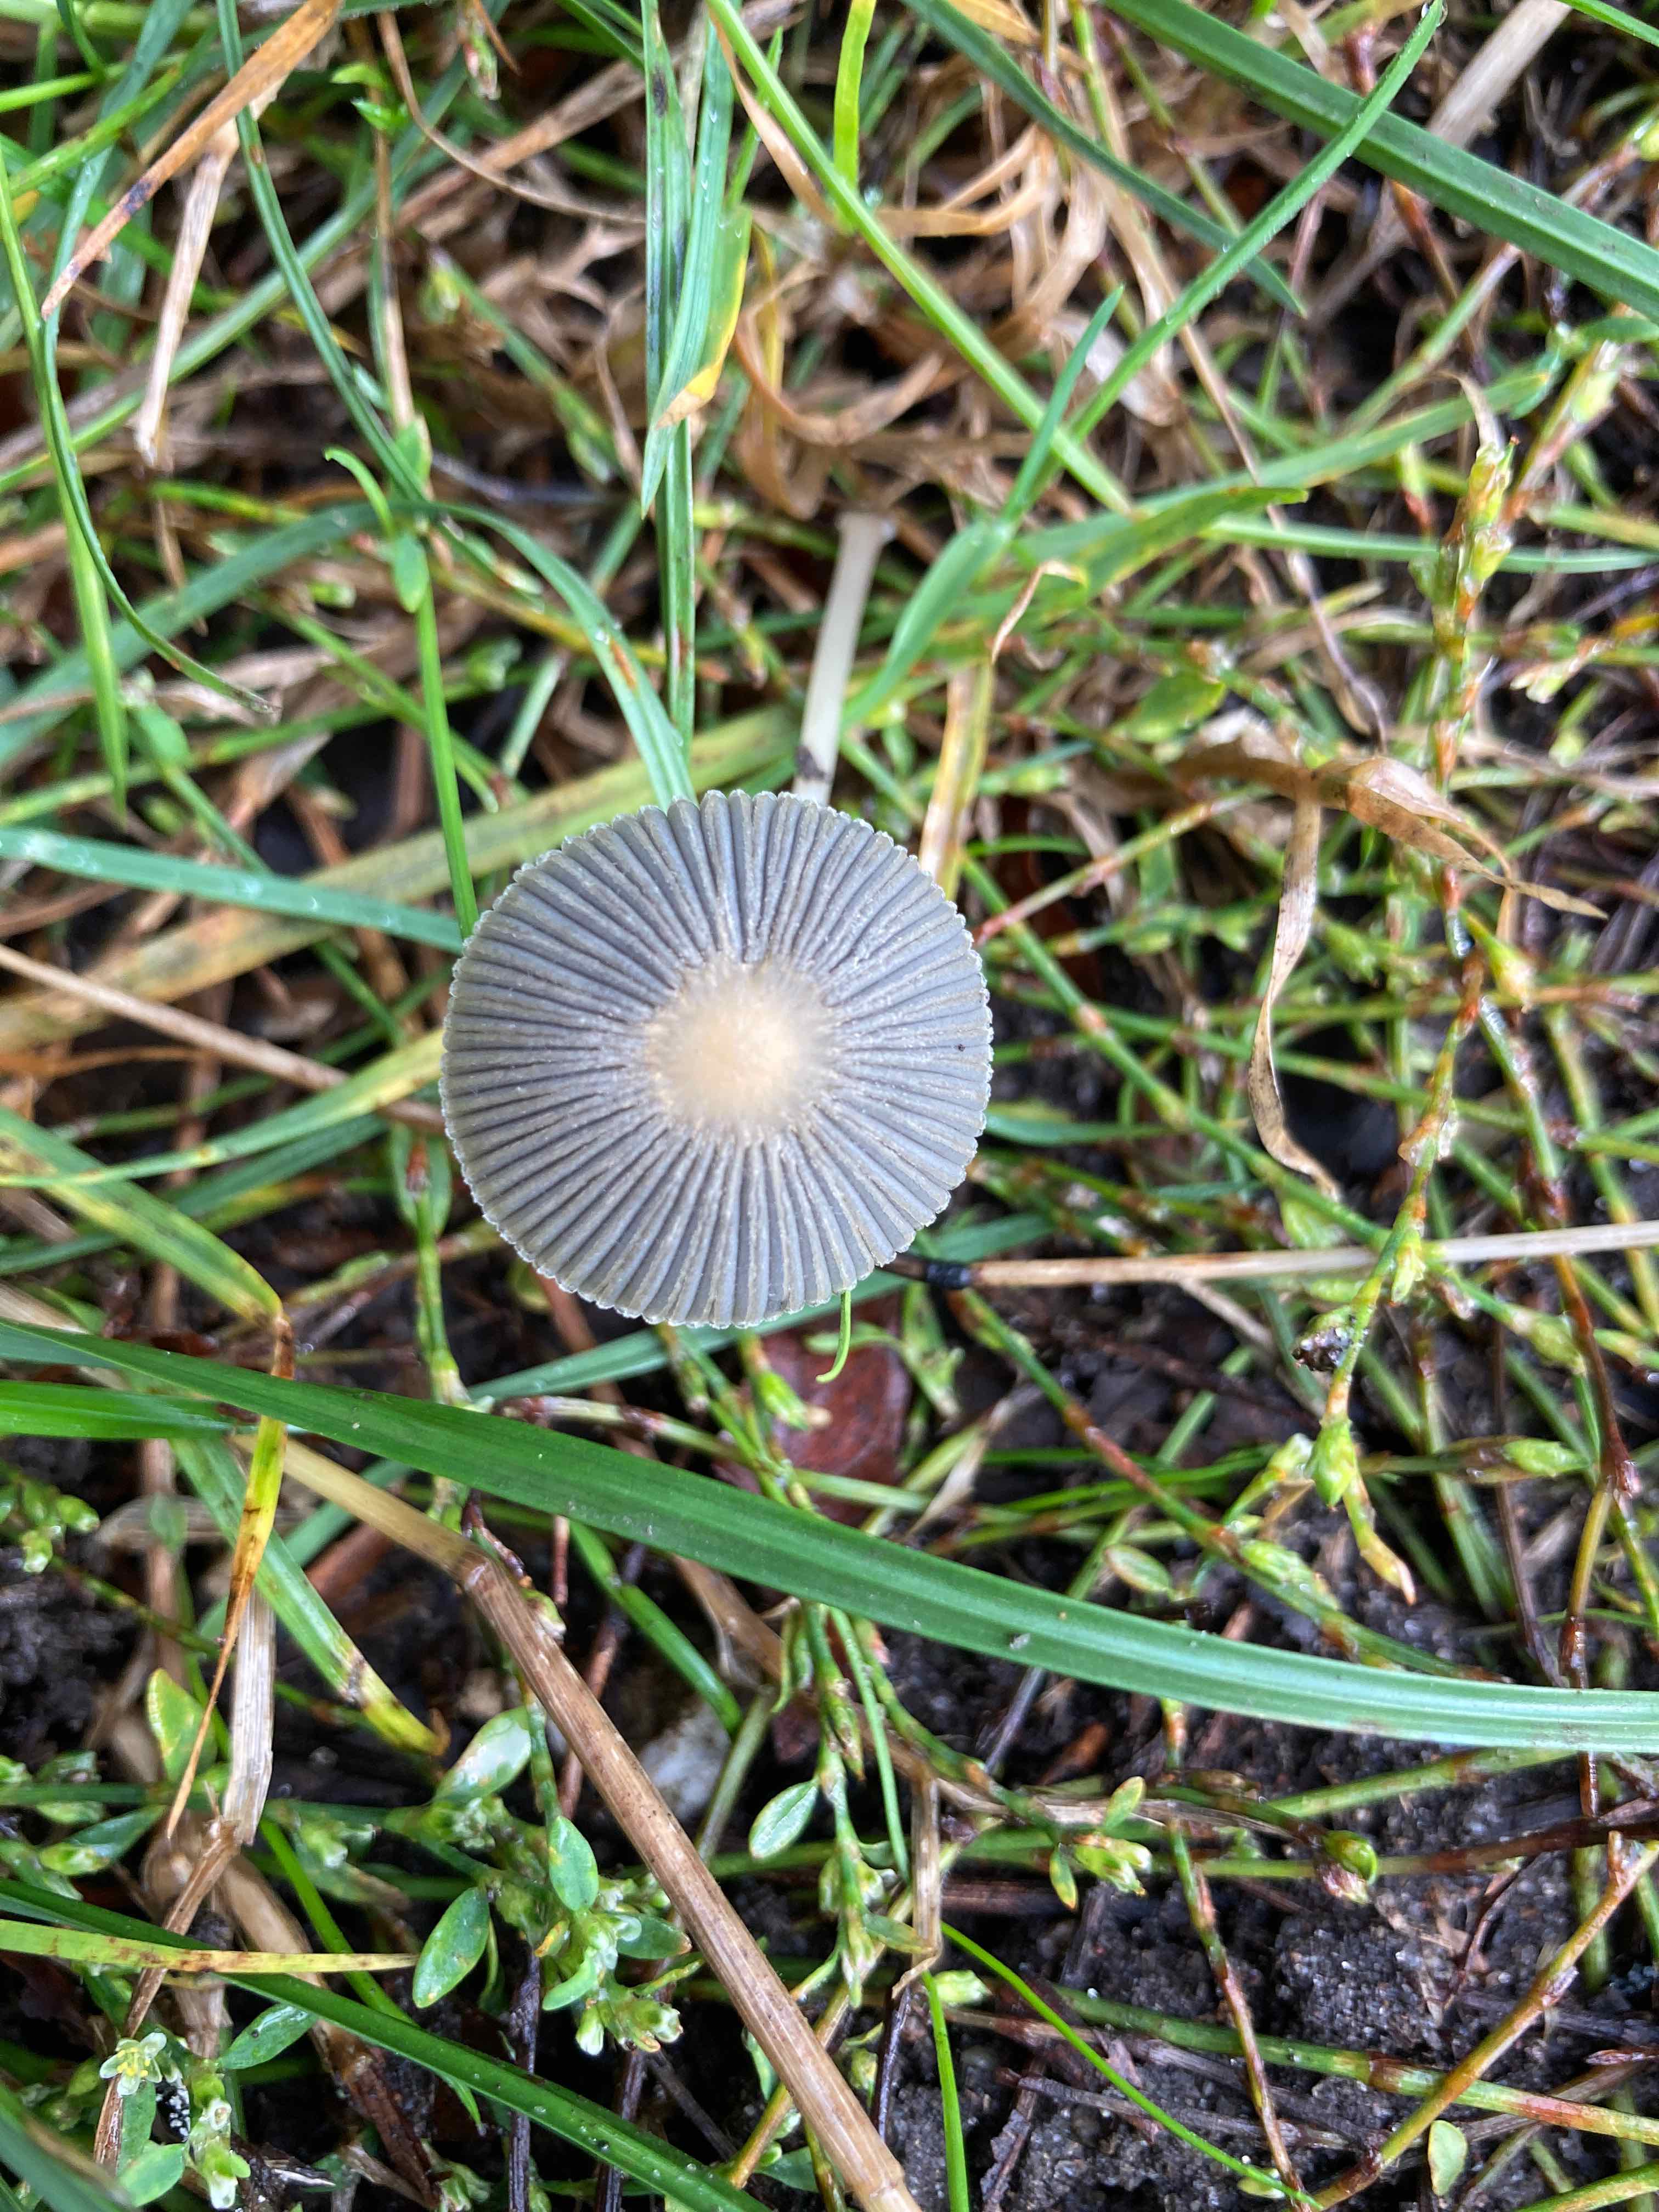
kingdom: Fungi
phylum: Basidiomycota
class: Agaricomycetes
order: Agaricales
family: Psathyrellaceae
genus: Parasola
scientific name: Parasola
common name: hjulhat
